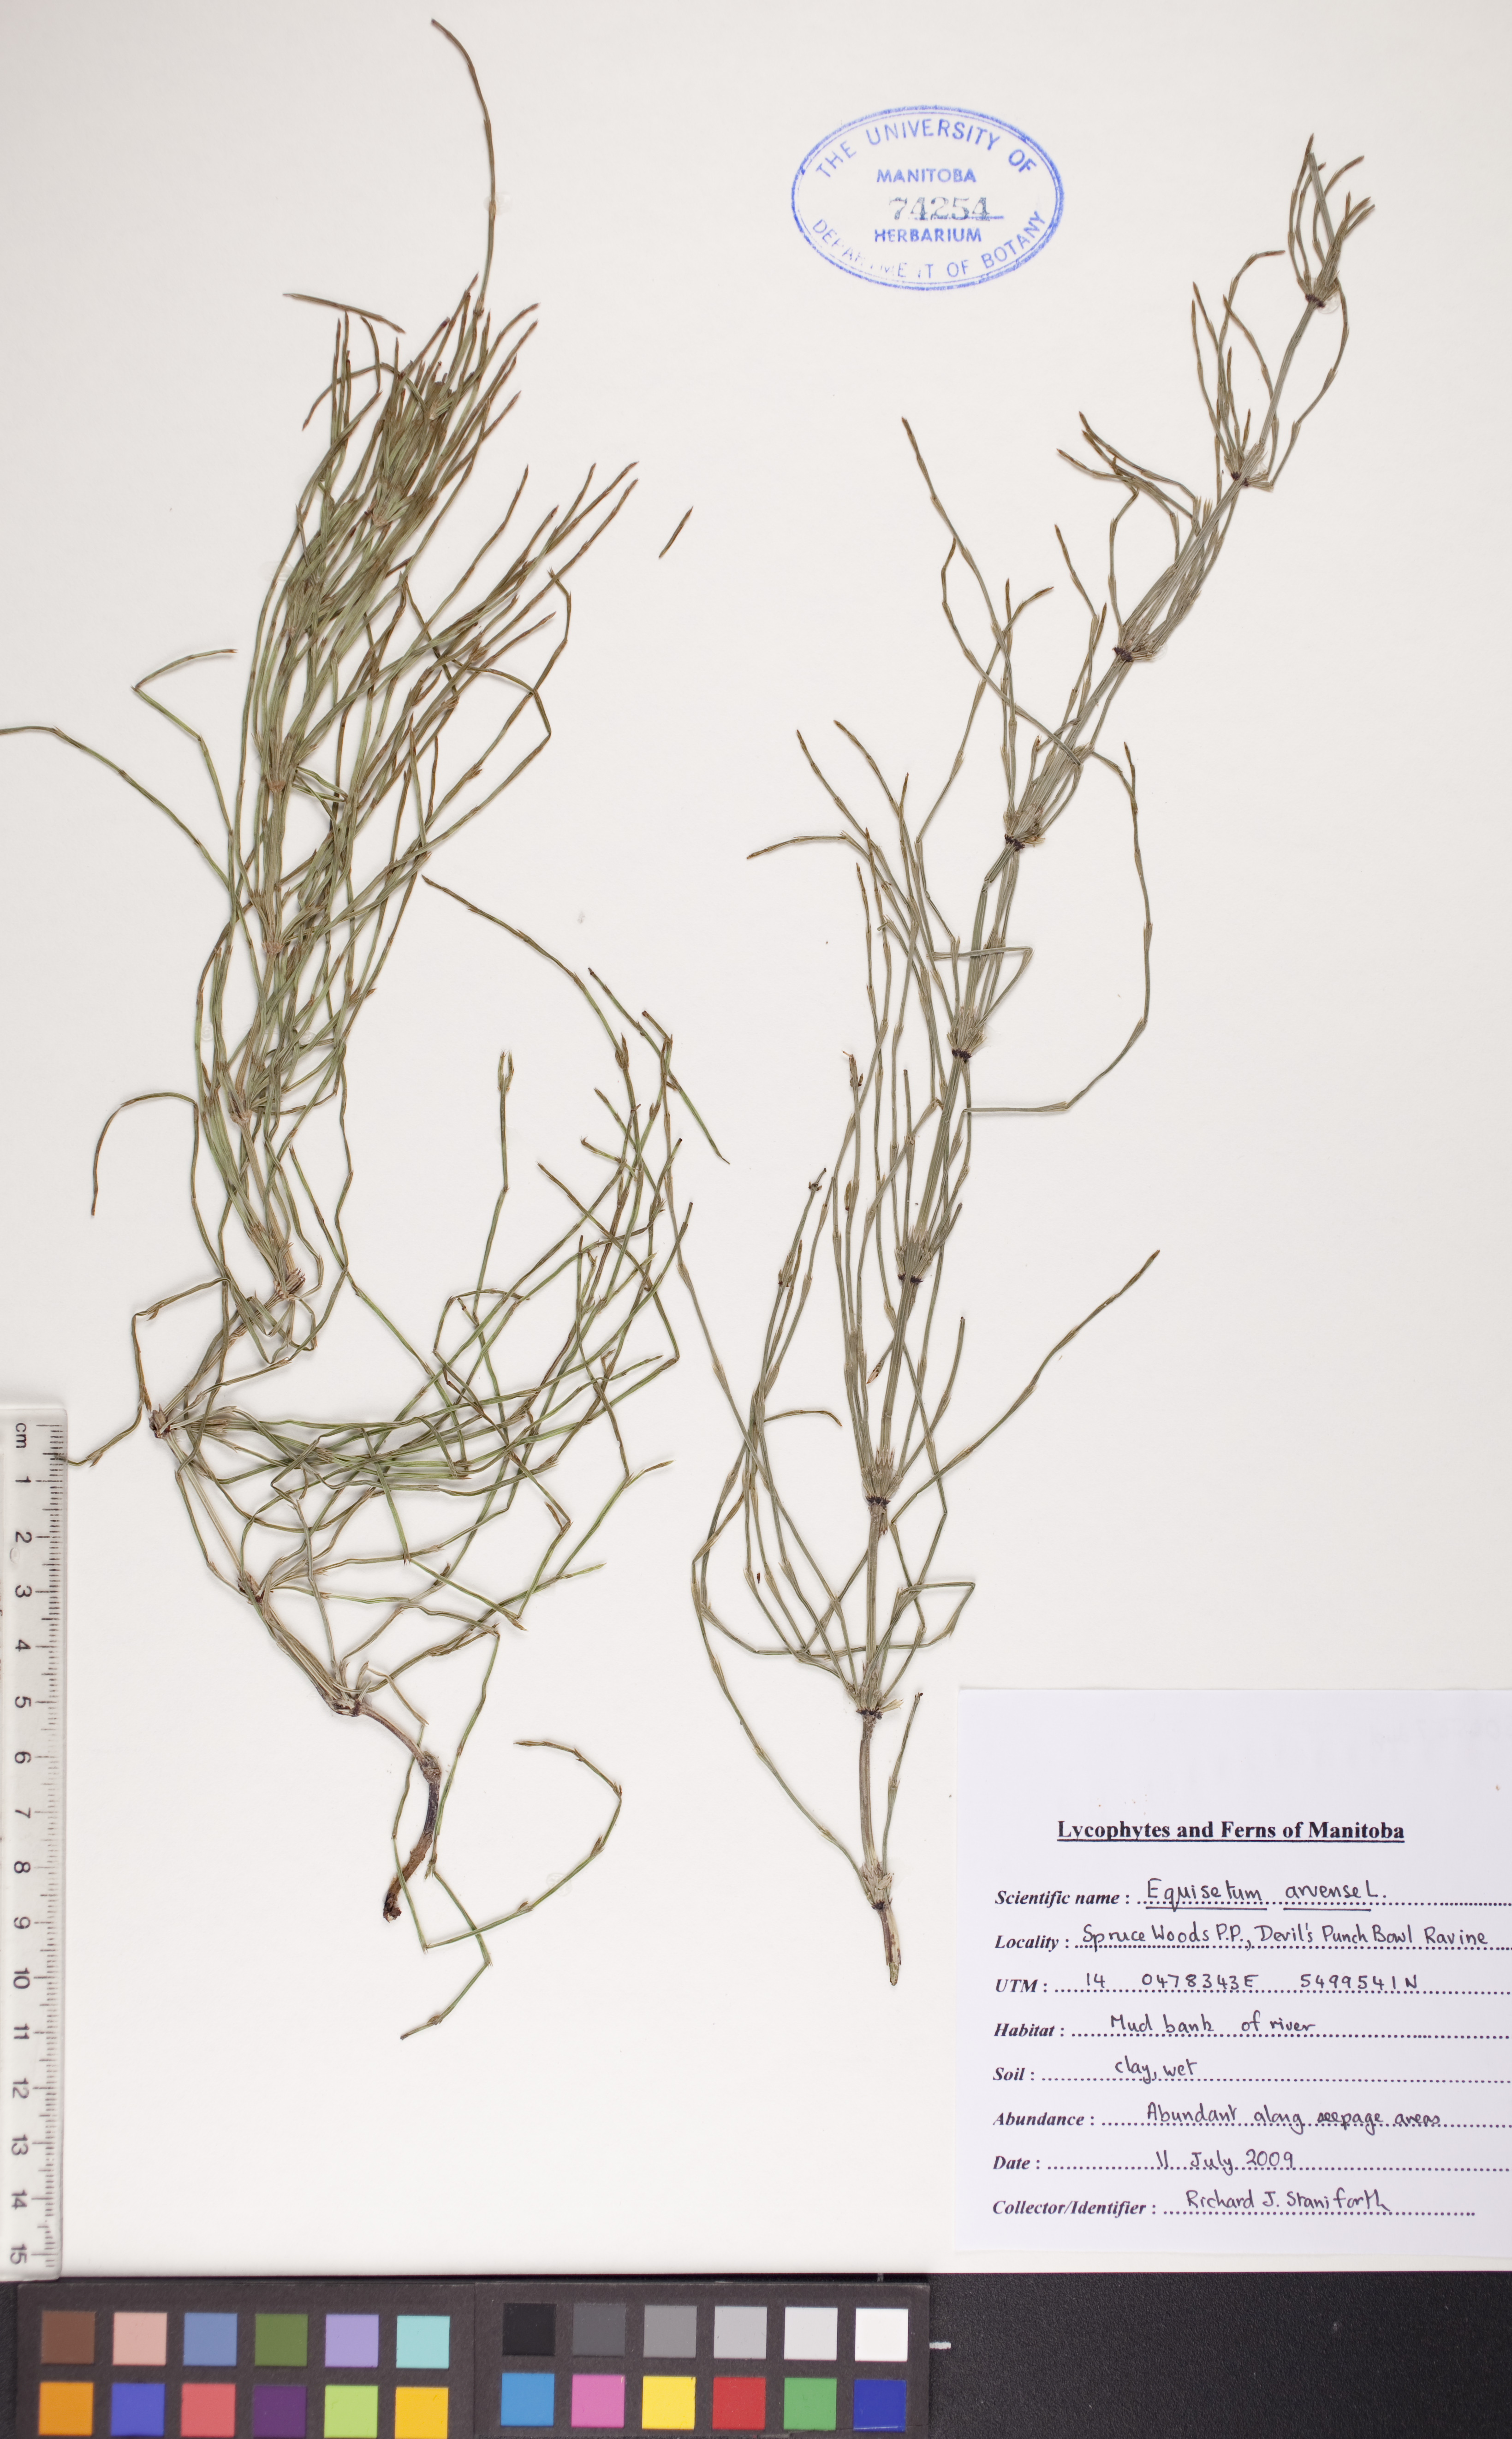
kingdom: Plantae
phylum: Tracheophyta
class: Polypodiopsida
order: Equisetales
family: Equisetaceae
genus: Equisetum
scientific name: Equisetum arvense
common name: Field horsetail
